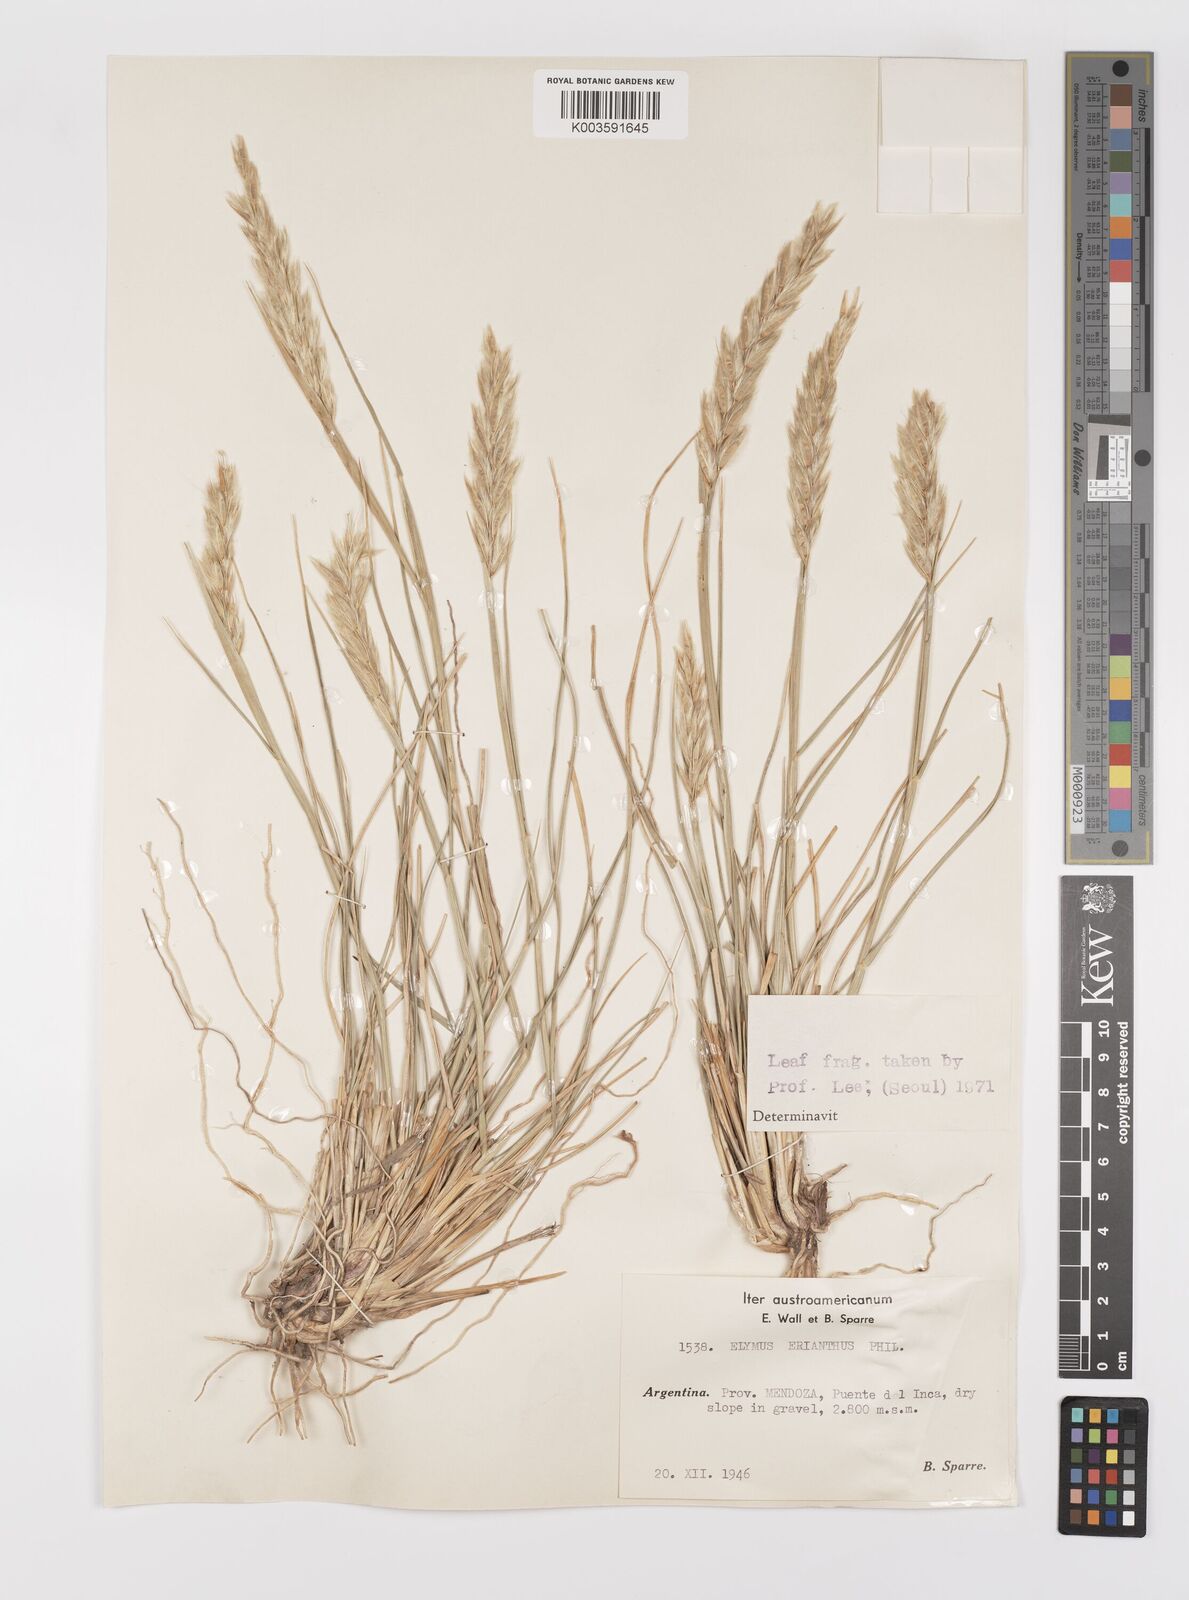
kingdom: Plantae
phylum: Tracheophyta
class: Liliopsida
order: Poales
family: Poaceae
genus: Leymus
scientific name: Leymus erianthus
